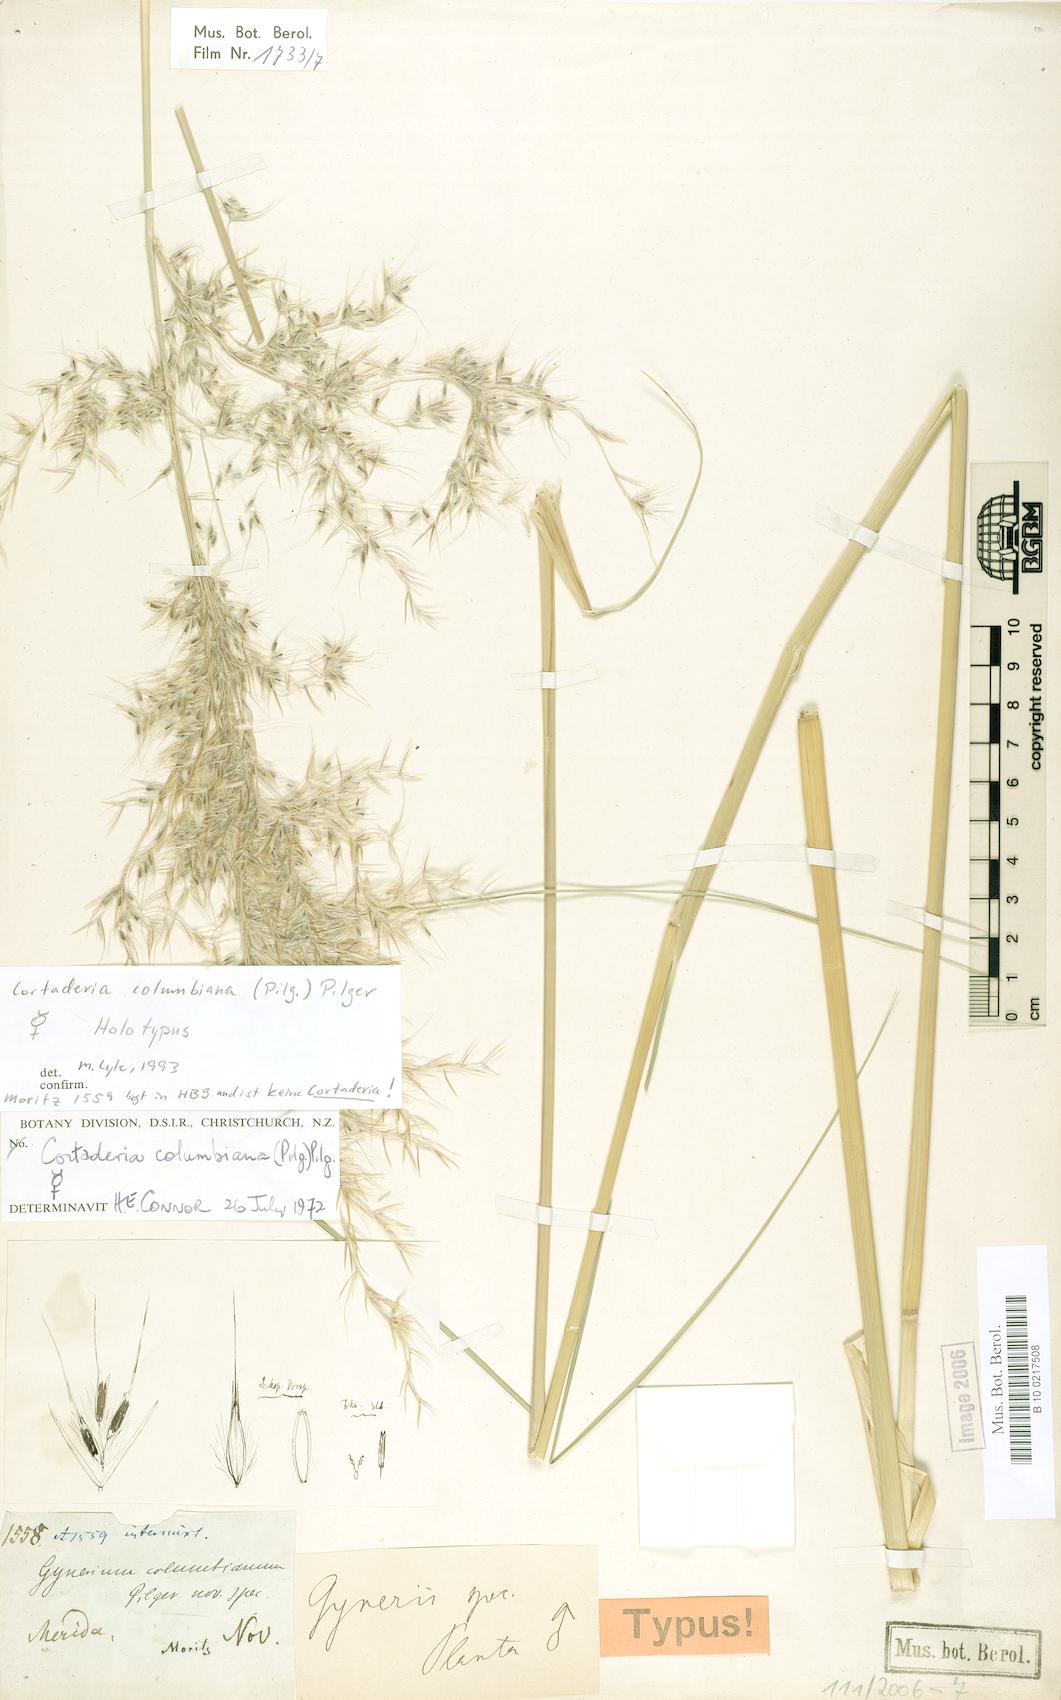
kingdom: Plantae
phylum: Tracheophyta
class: Liliopsida
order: Poales
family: Poaceae
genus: Cortaderia
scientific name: Cortaderia columbiana
